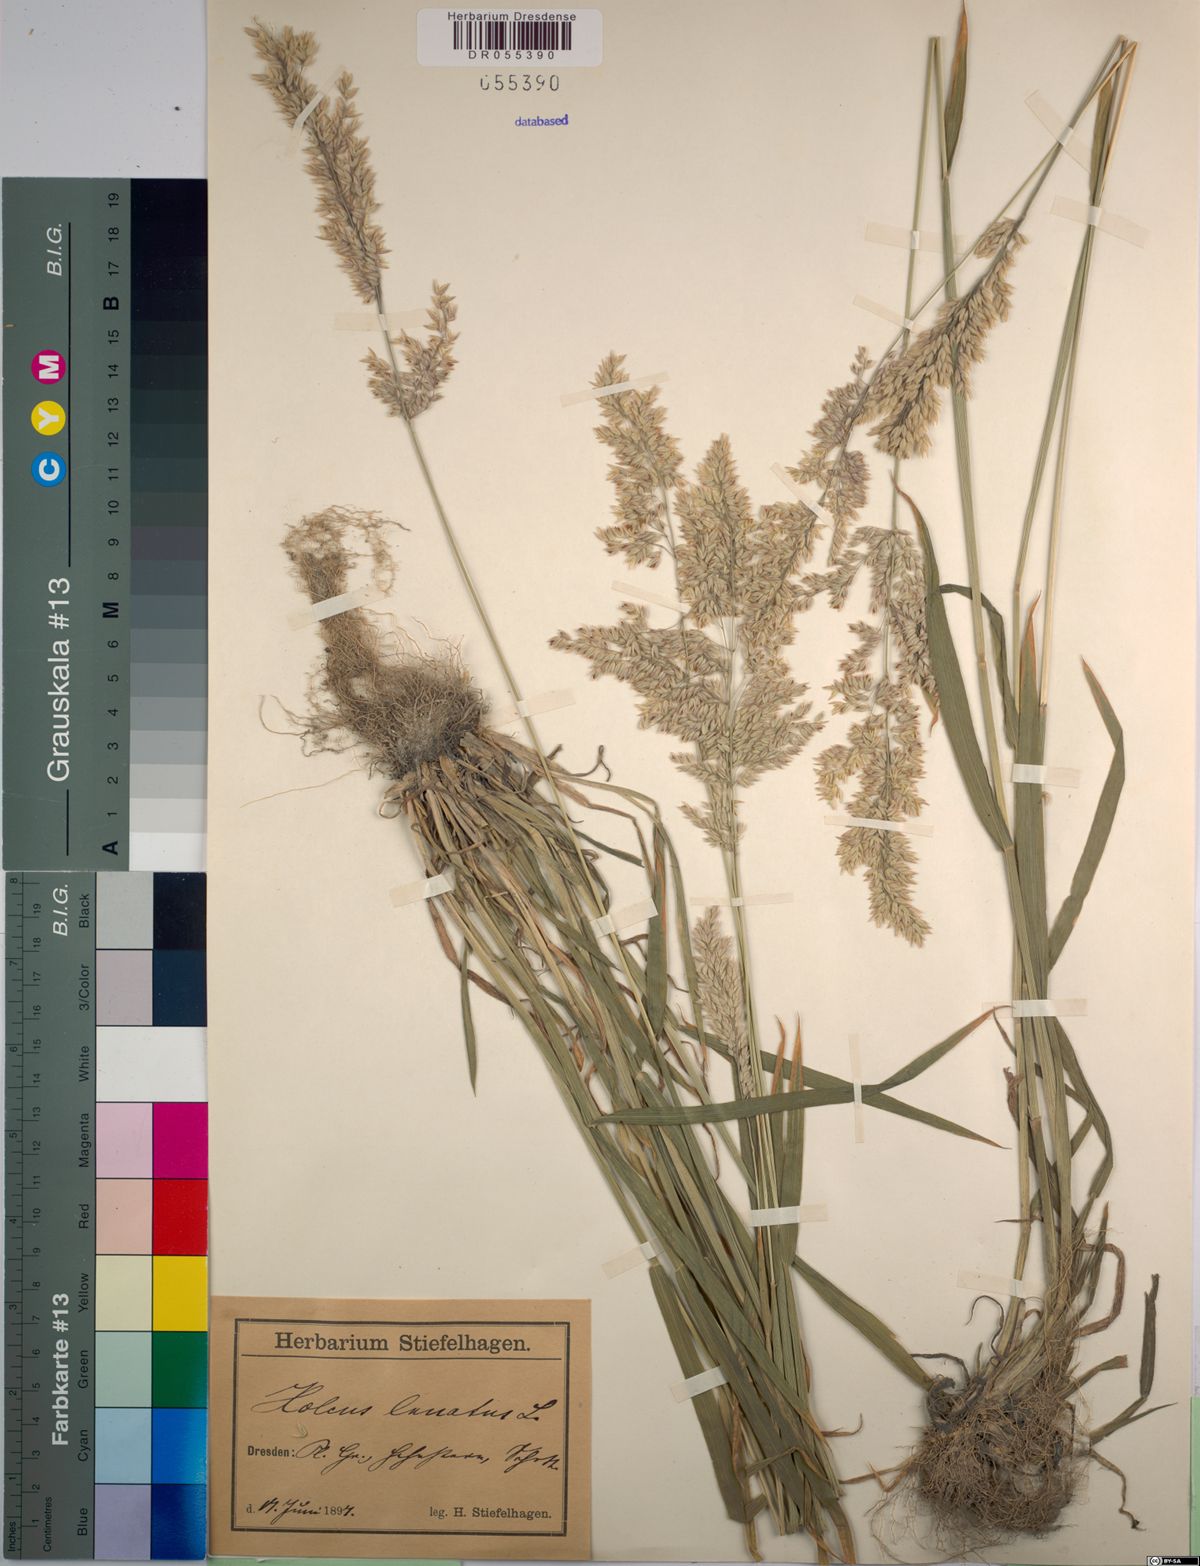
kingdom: Plantae
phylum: Tracheophyta
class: Liliopsida
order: Poales
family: Poaceae
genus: Holcus
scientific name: Holcus lanatus
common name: Yorkshire-fog
